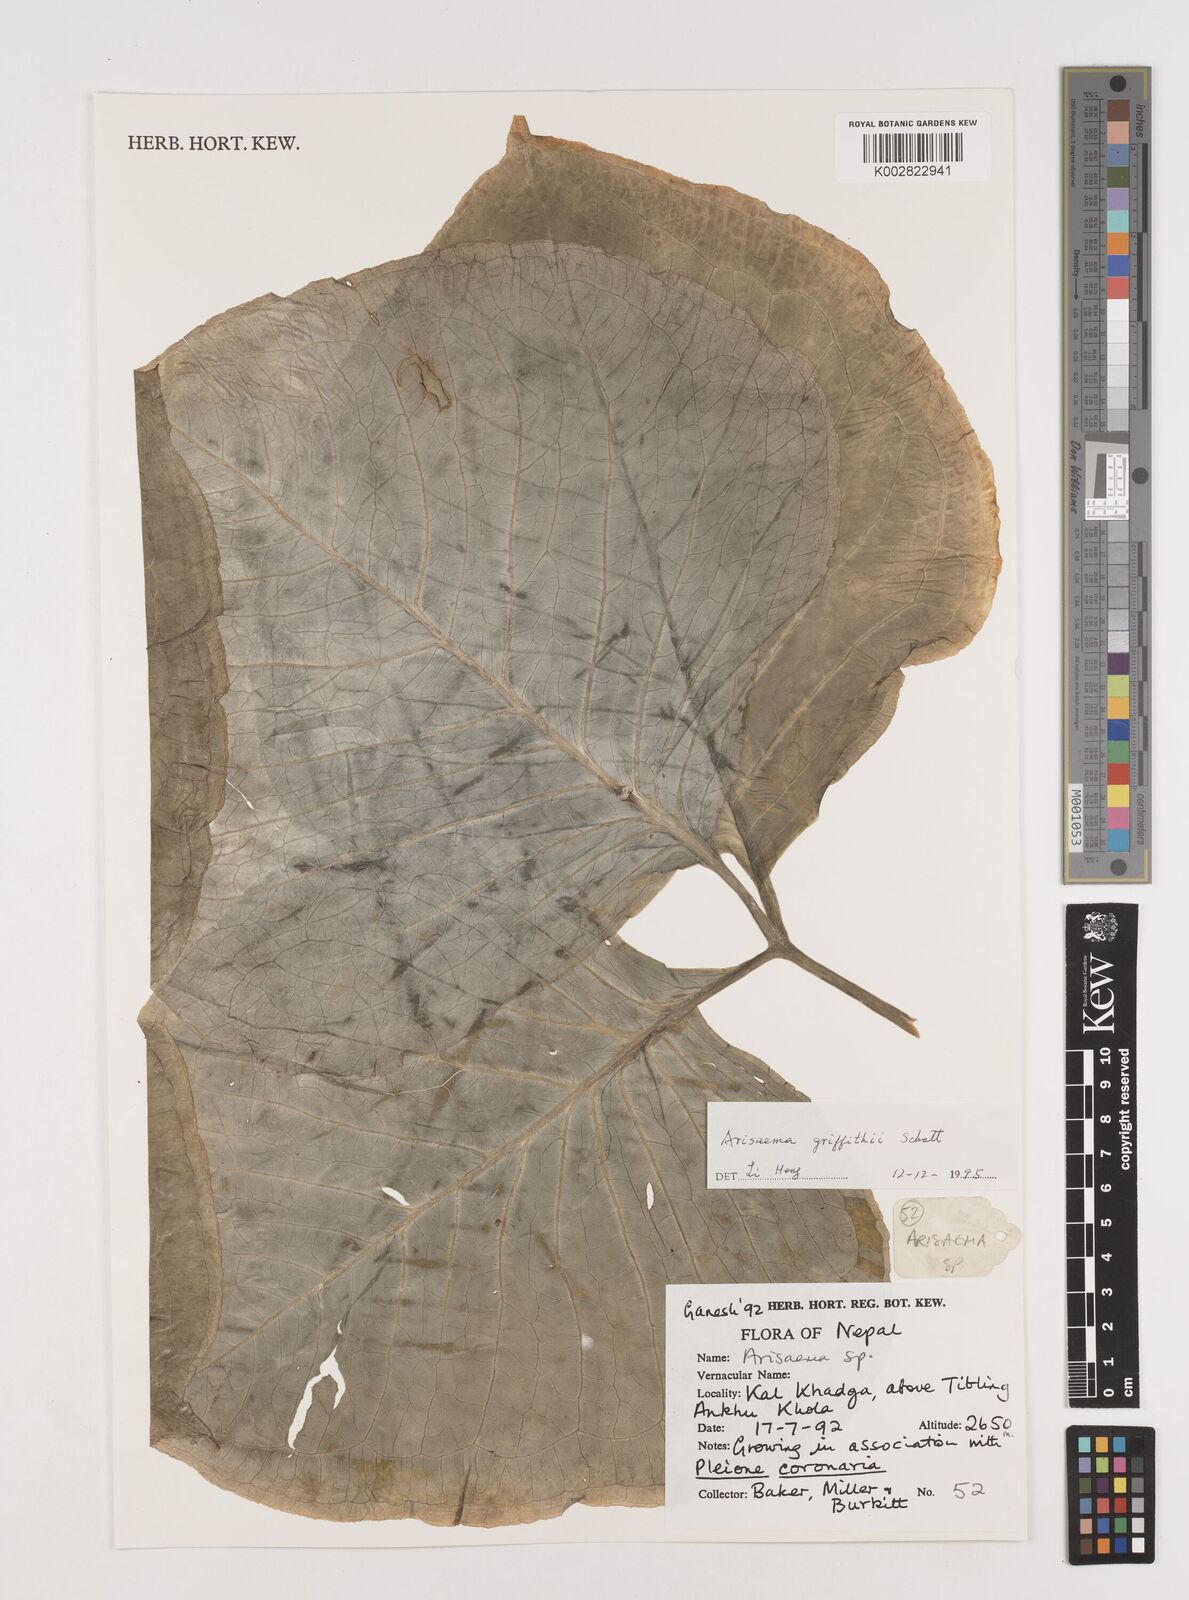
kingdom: Plantae
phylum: Tracheophyta
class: Liliopsida
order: Alismatales
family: Araceae
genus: Arisaema
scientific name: Arisaema griffithii
